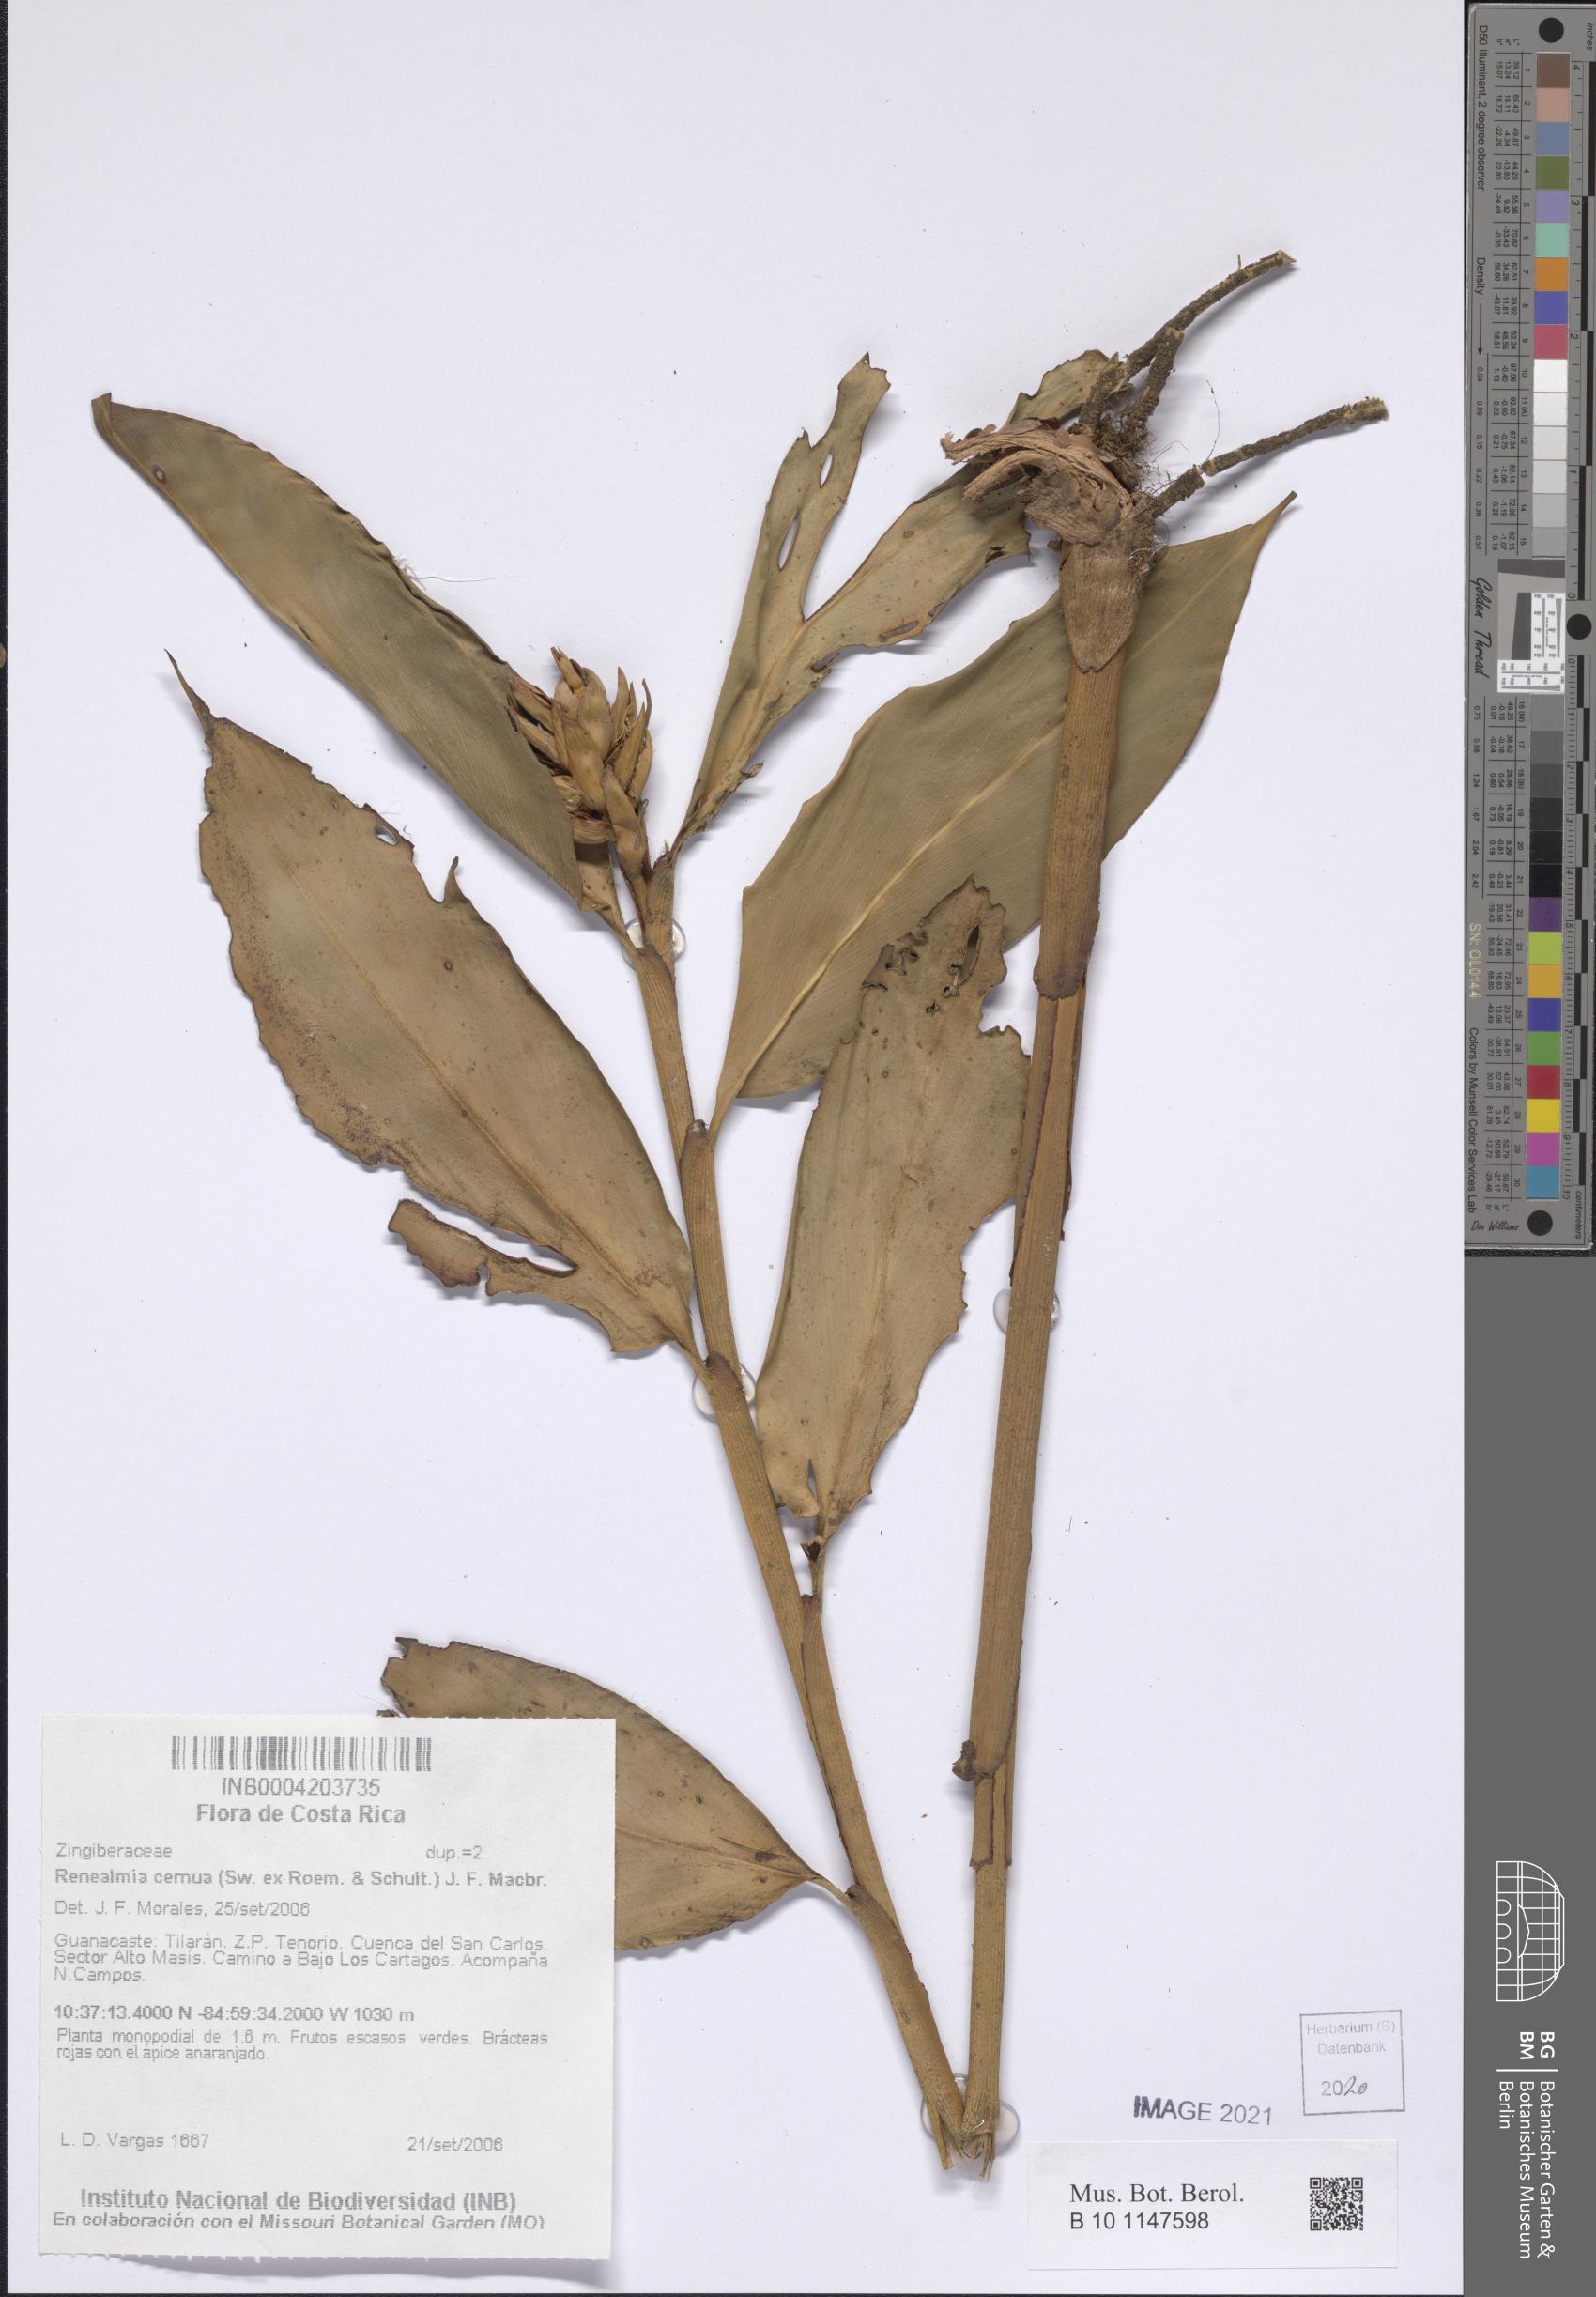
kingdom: Plantae
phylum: Tracheophyta
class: Liliopsida
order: Zingiberales
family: Zingiberaceae
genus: Renealmia
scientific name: Renealmia cernua
